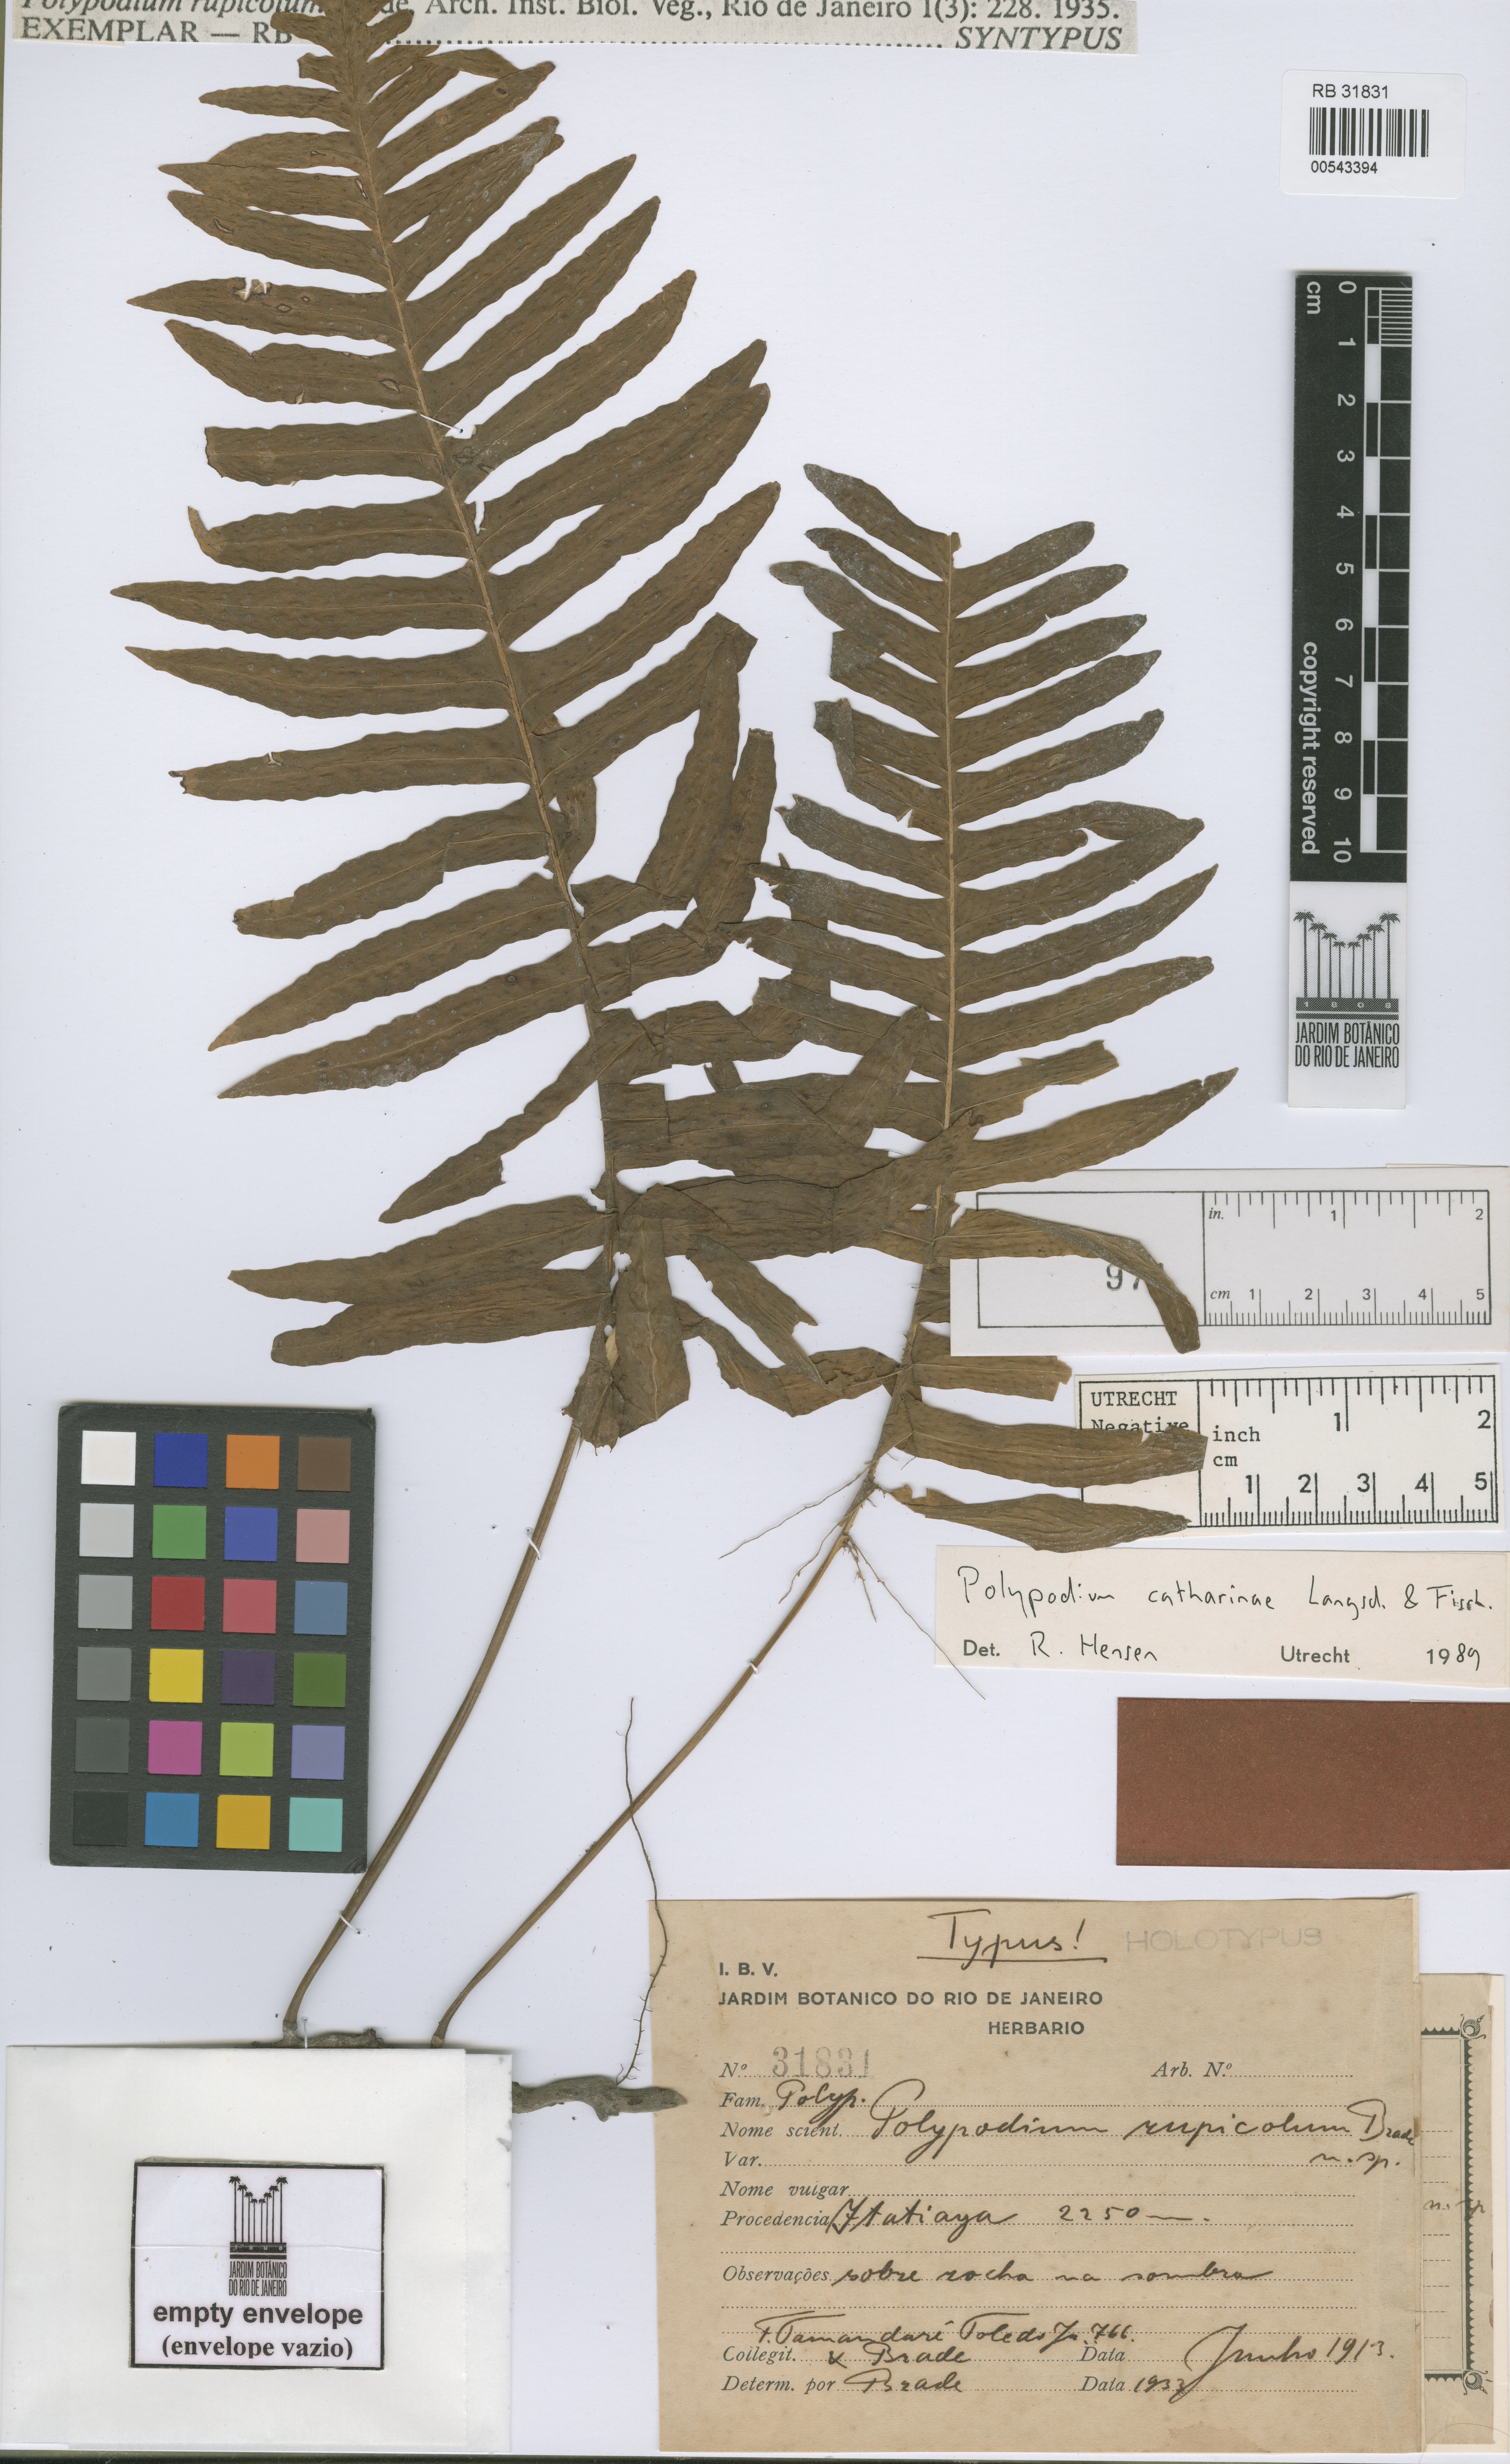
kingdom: Plantae
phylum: Tracheophyta
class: Polypodiopsida
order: Polypodiales
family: Polypodiaceae
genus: Serpocaulon
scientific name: Serpocaulon catharinae
